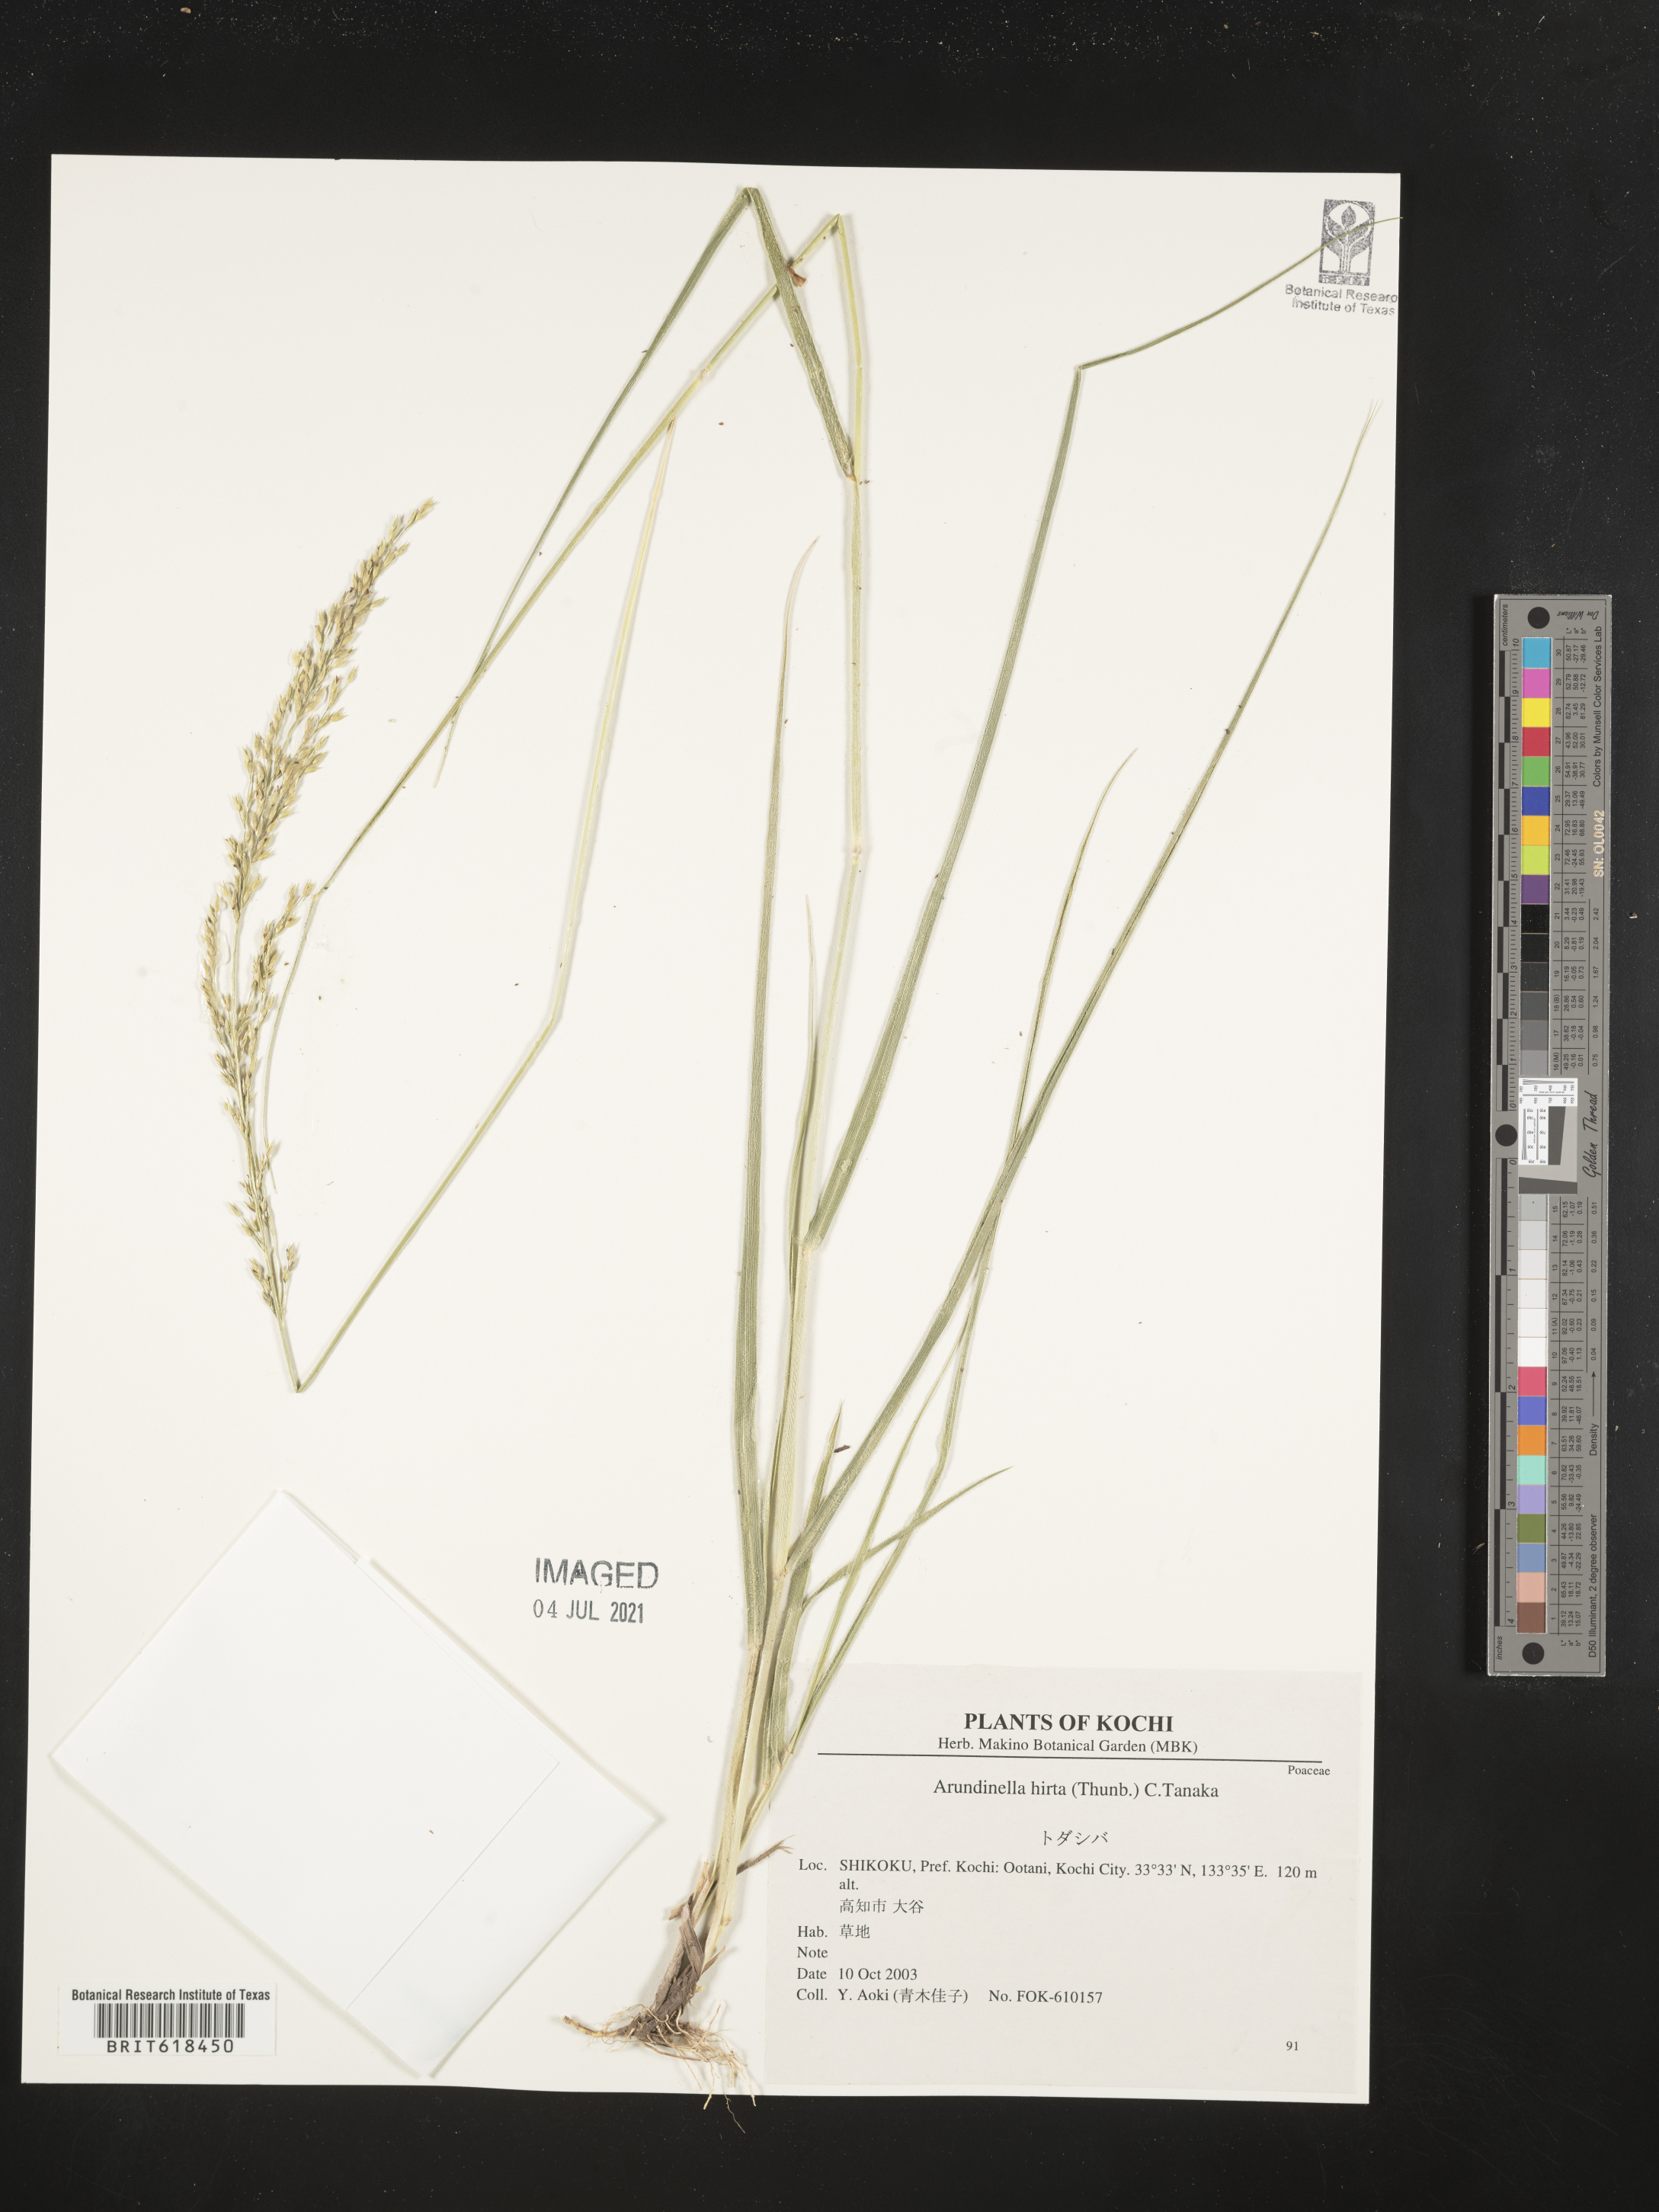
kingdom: Plantae
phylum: Tracheophyta
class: Liliopsida
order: Poales
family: Poaceae
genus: Arundinella
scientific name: Arundinella hirta
